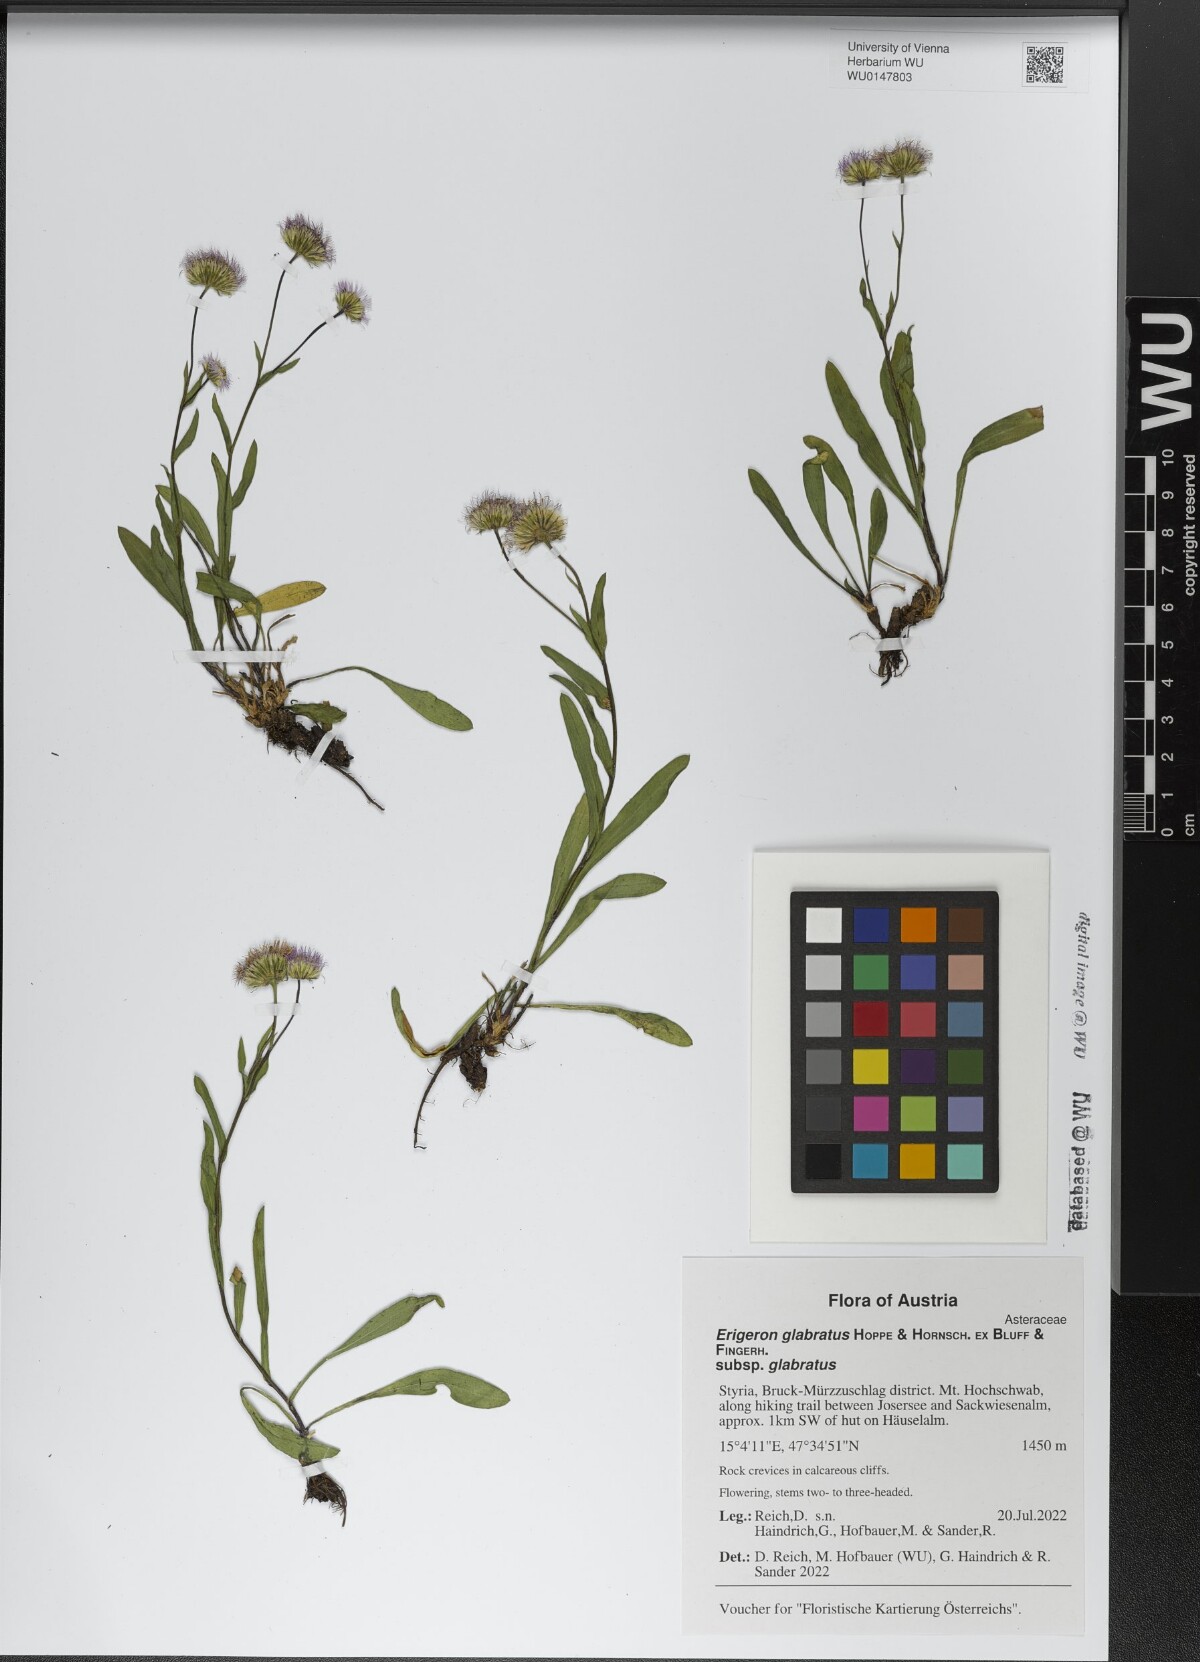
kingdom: Plantae
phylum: Tracheophyta
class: Magnoliopsida
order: Asterales
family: Asteraceae
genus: Erigeron
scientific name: Erigeron glabratus
